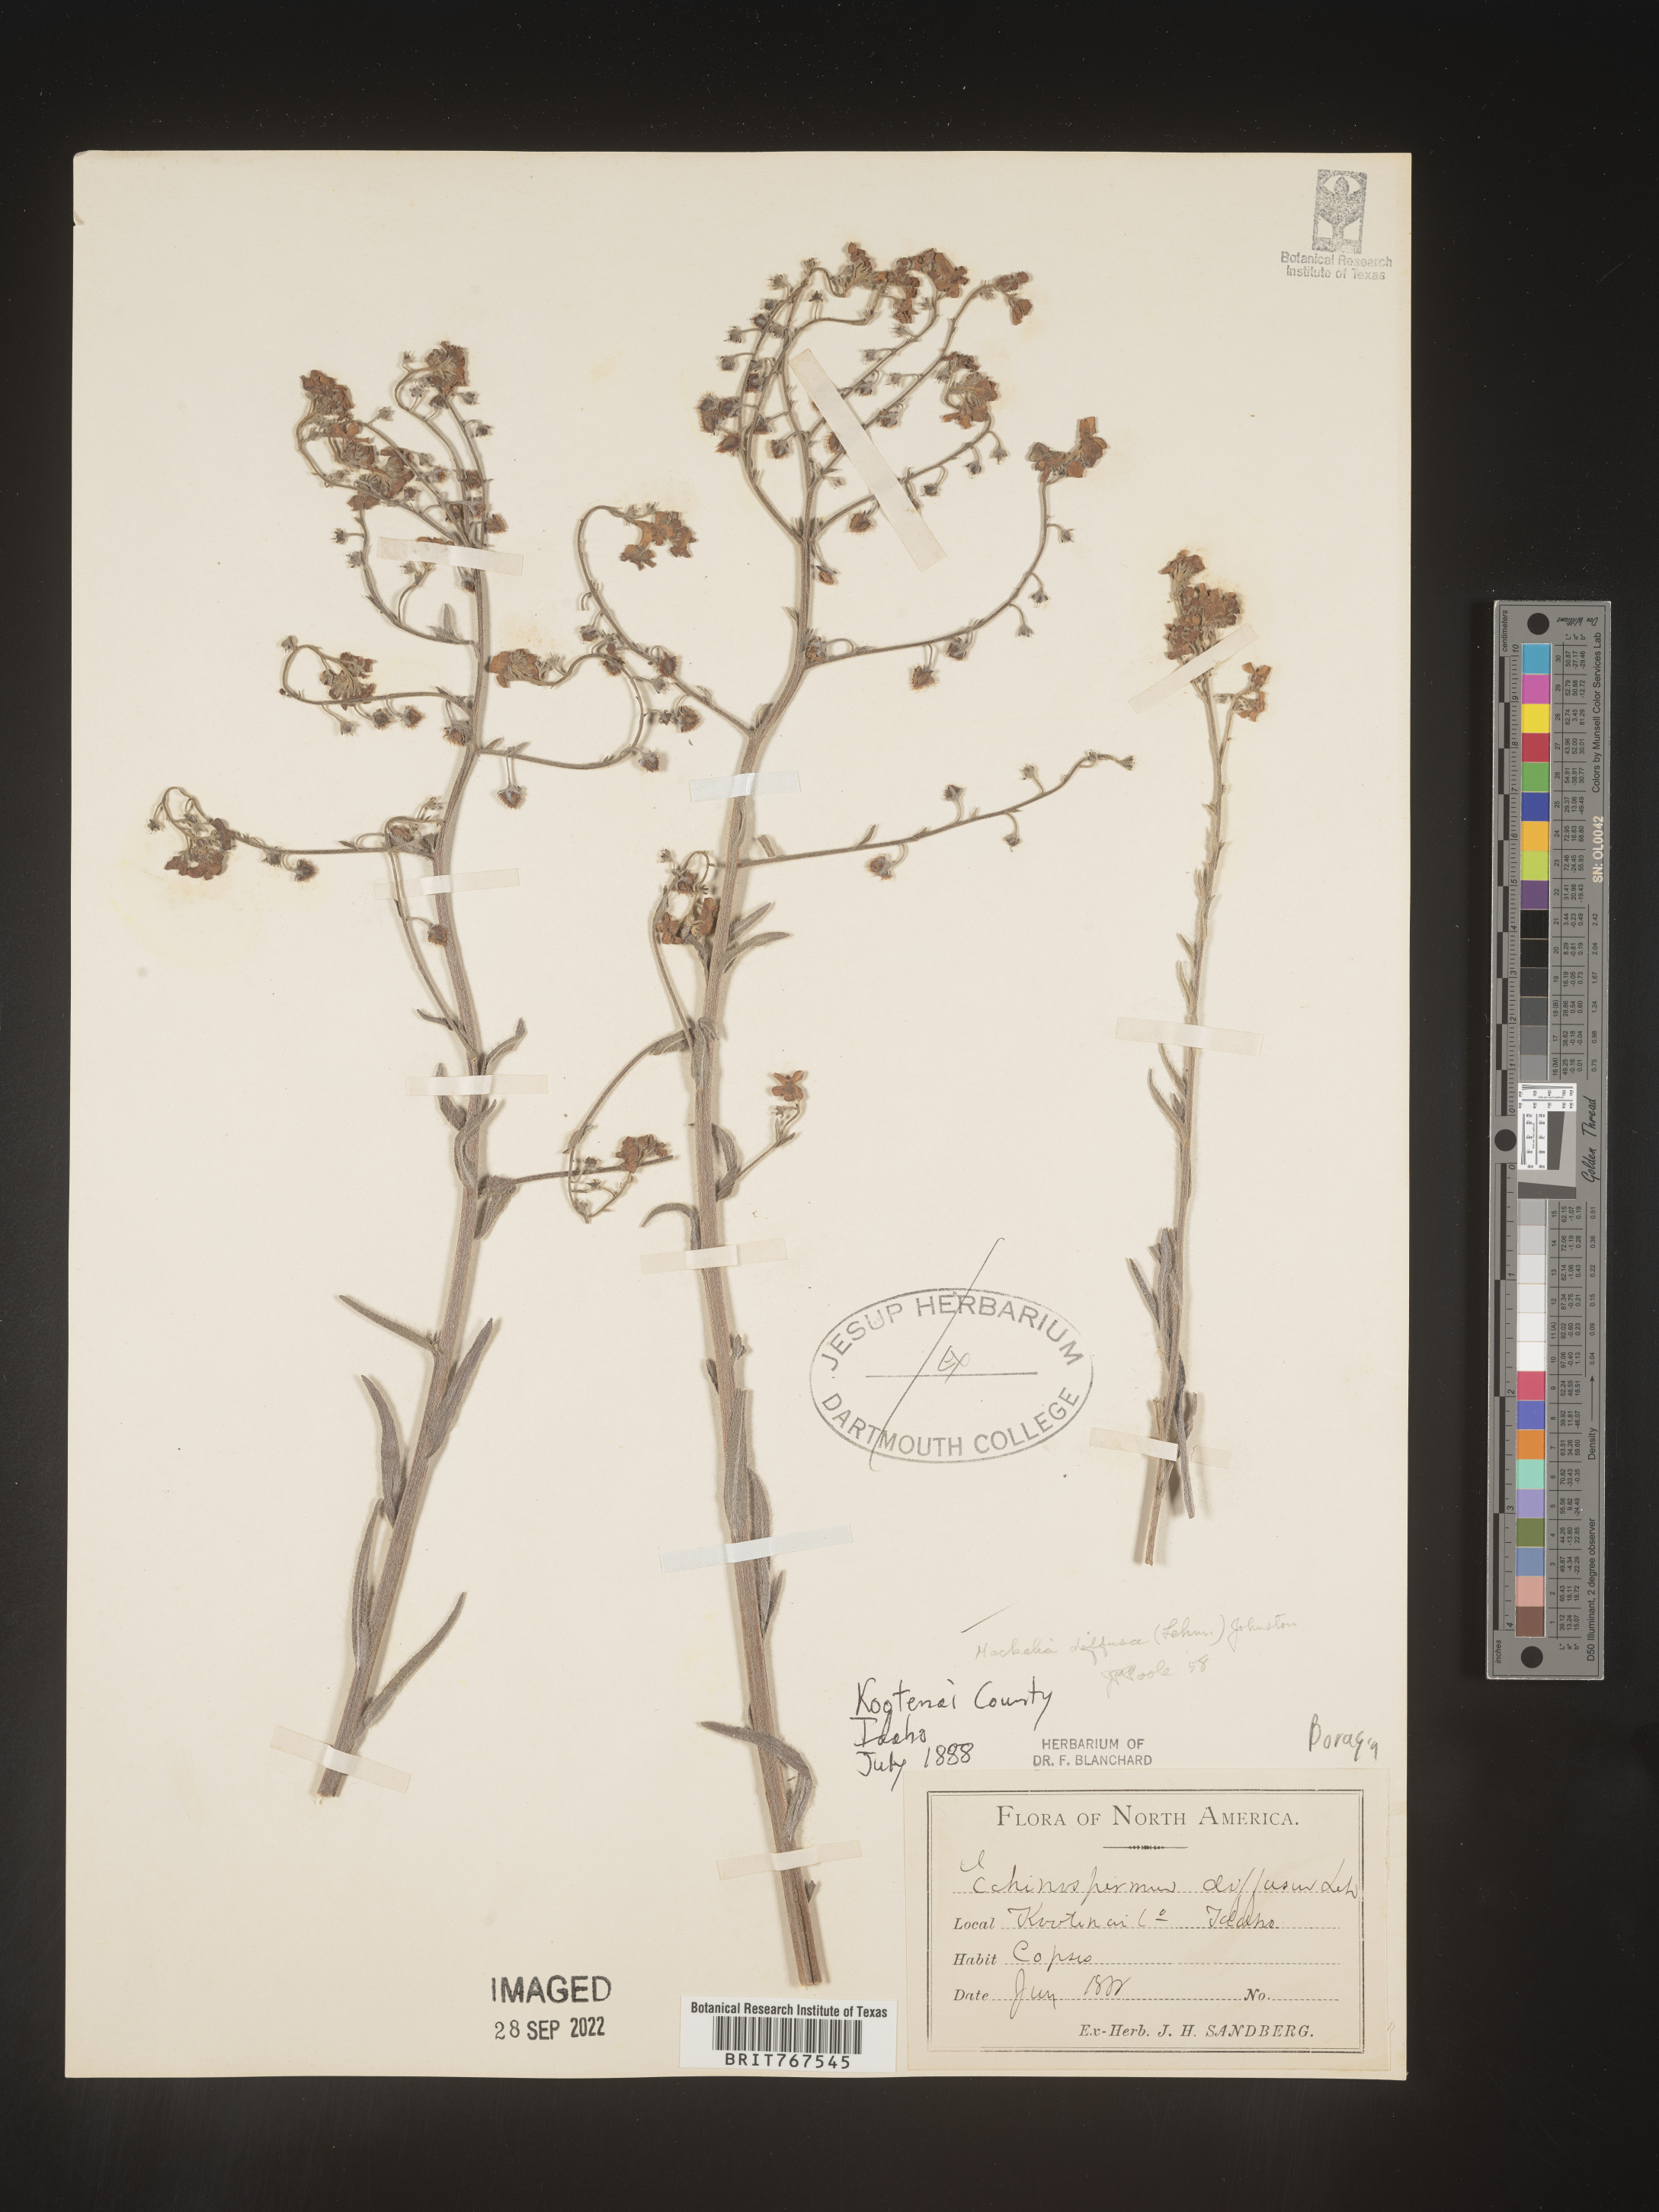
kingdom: Plantae
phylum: Tracheophyta
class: Magnoliopsida
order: Boraginales
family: Boraginaceae
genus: Hackelia
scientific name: Hackelia
